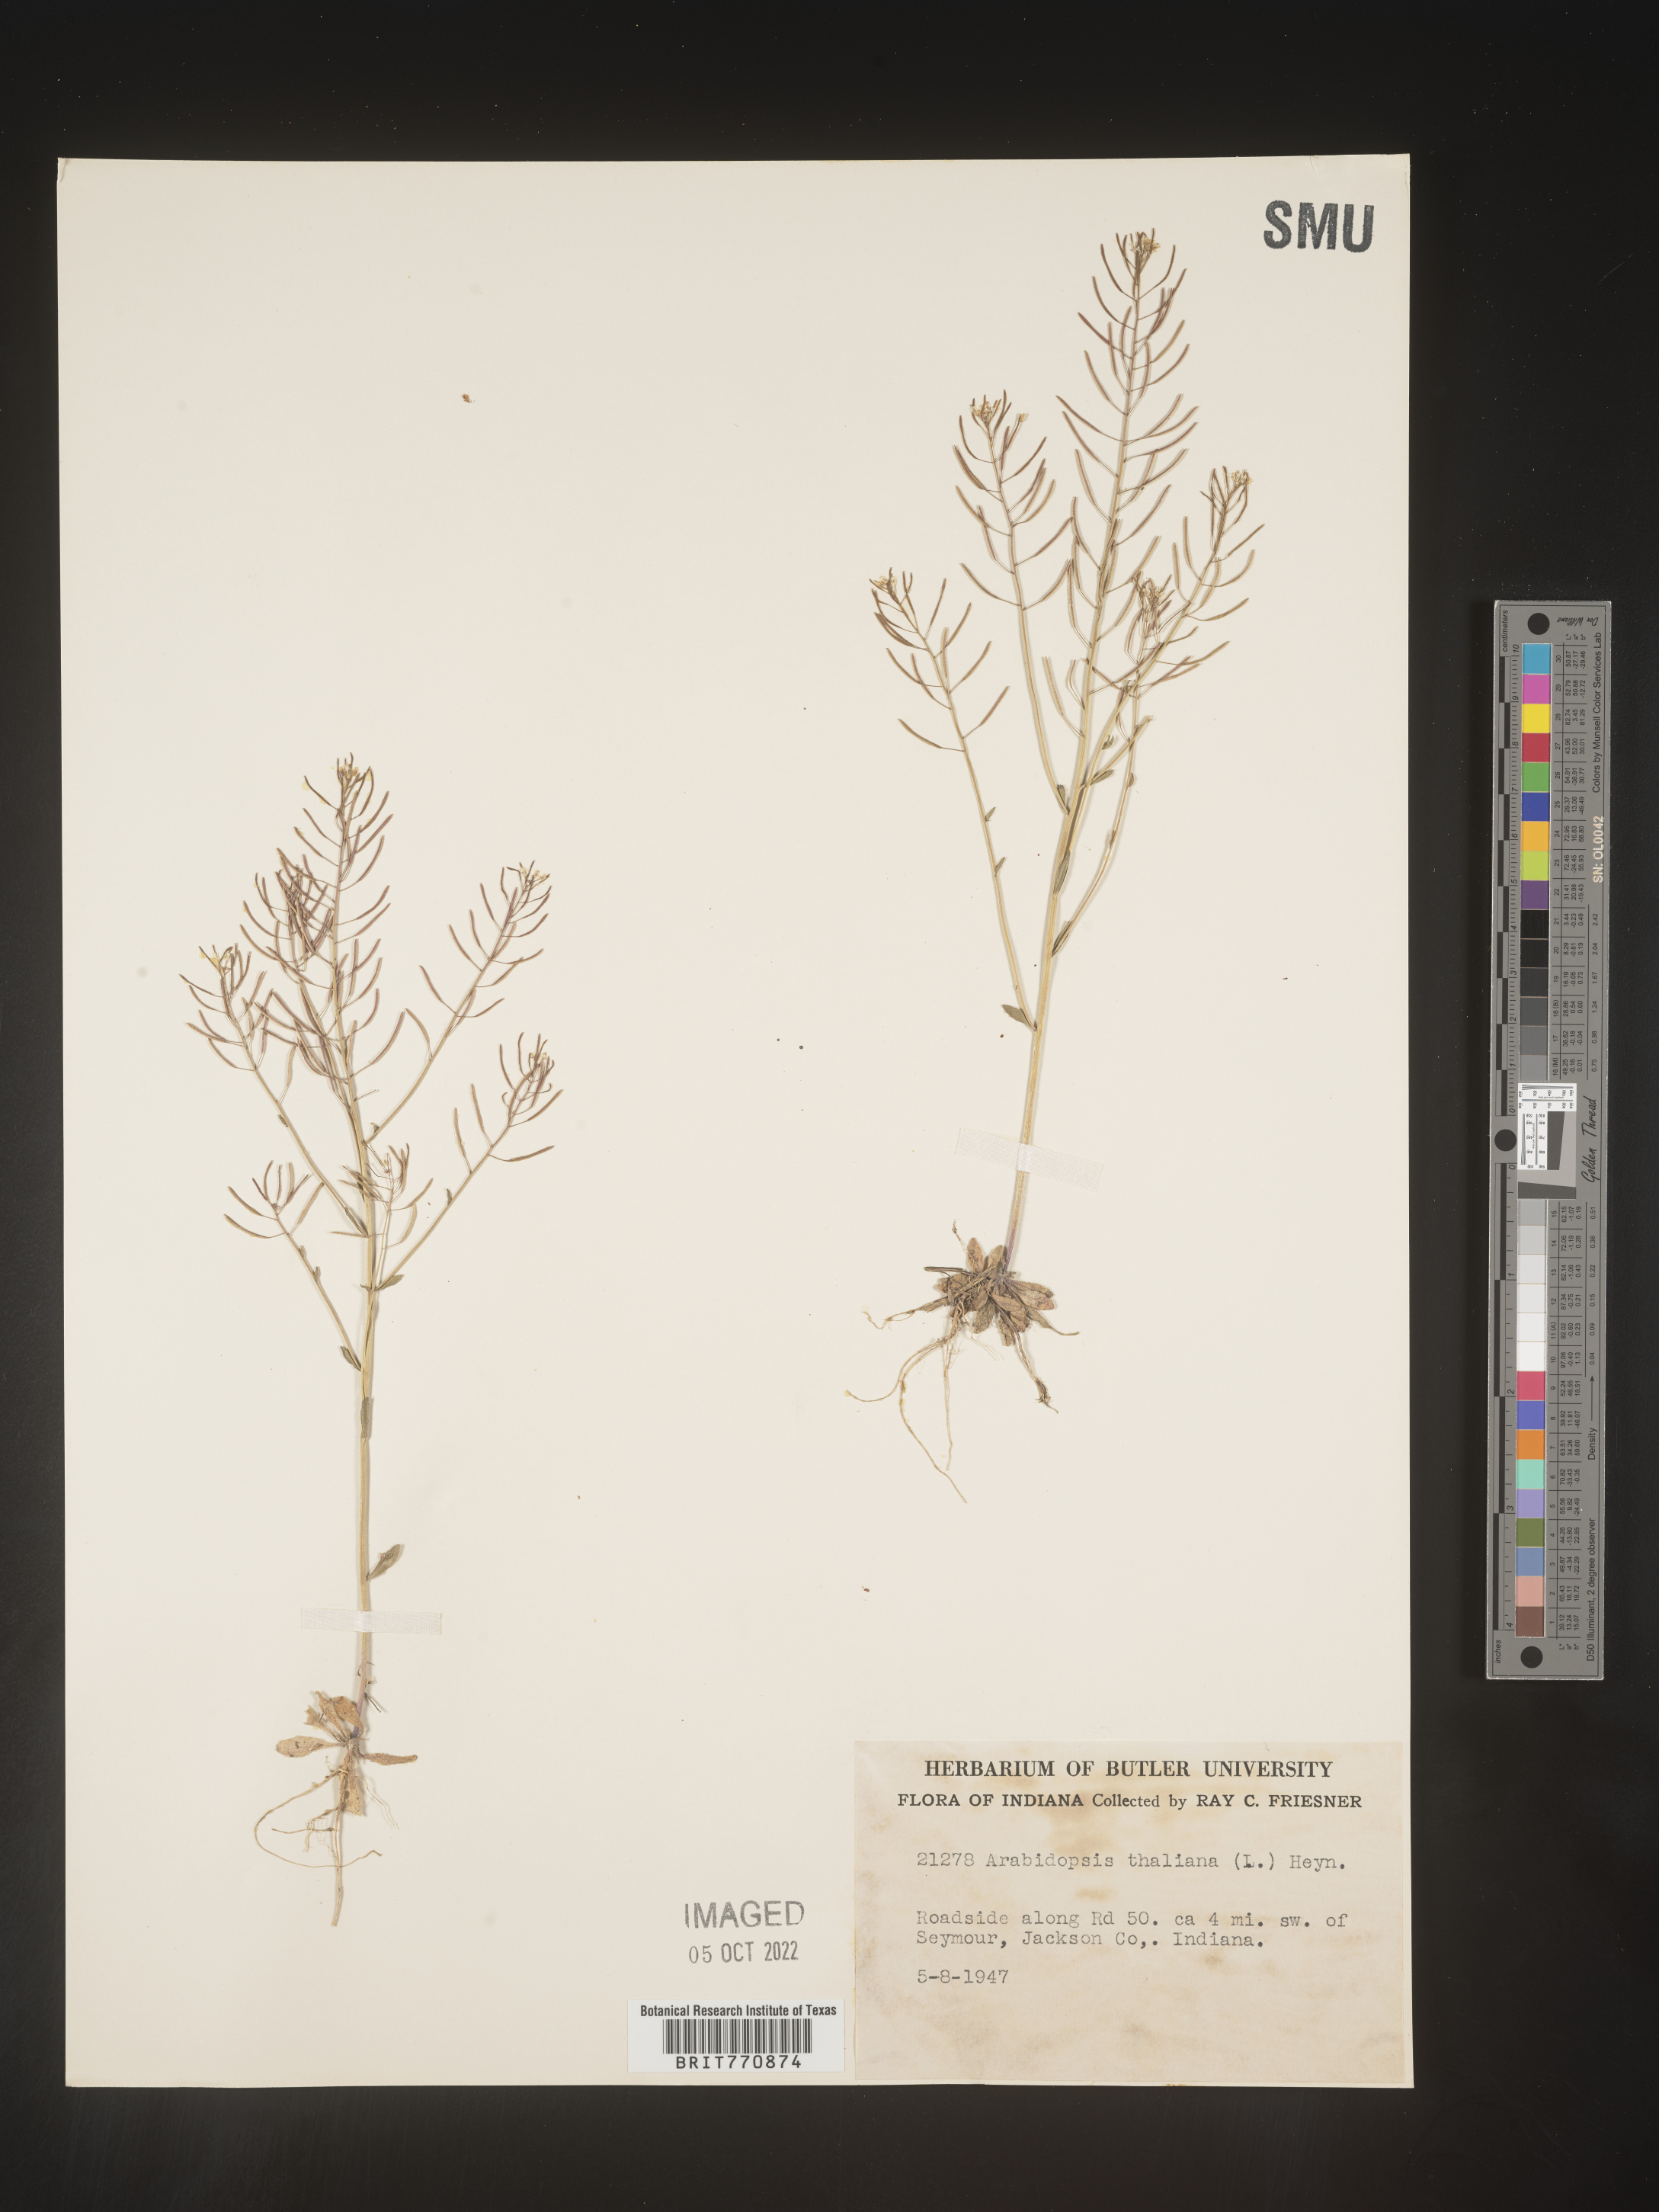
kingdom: Plantae
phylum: Tracheophyta
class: Magnoliopsida
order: Brassicales
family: Brassicaceae
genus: Arabidopsis
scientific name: Arabidopsis thaliana
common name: Thale cress
